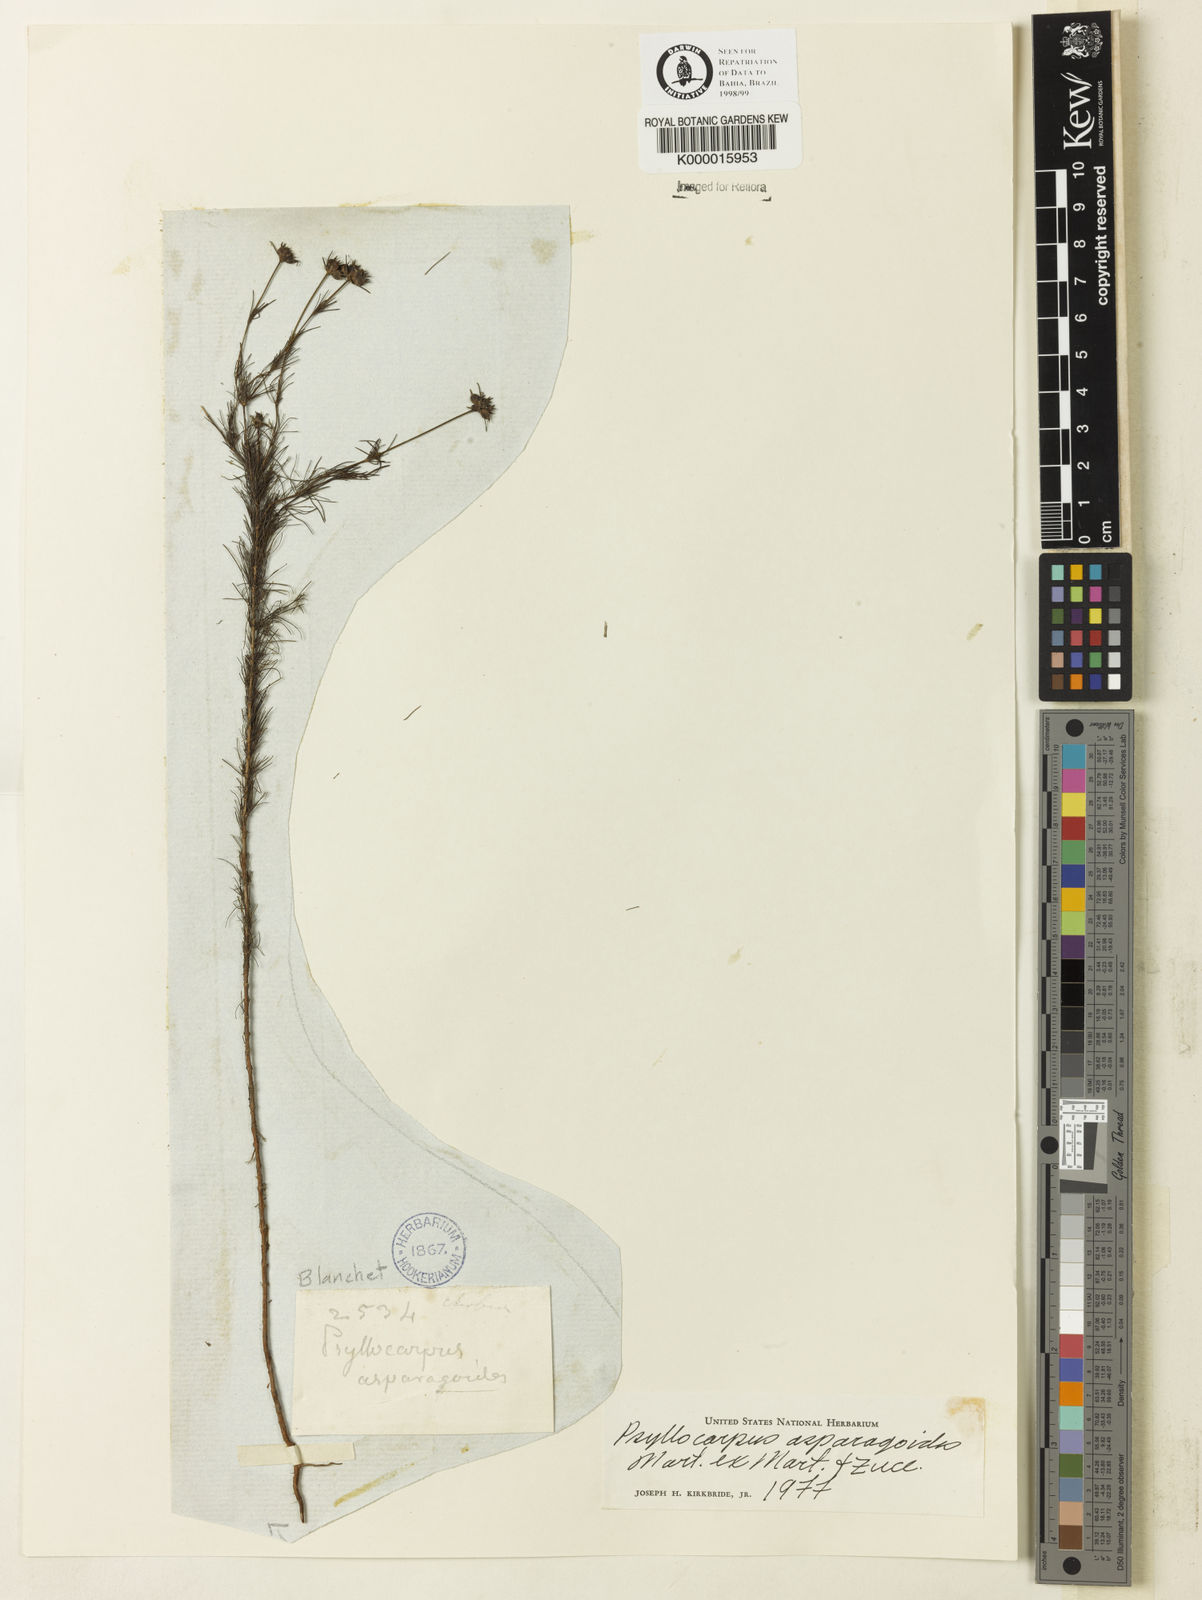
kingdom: Plantae
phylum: Tracheophyta
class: Magnoliopsida
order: Gentianales
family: Rubiaceae
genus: Psyllocarpus
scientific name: Psyllocarpus asparagoides
